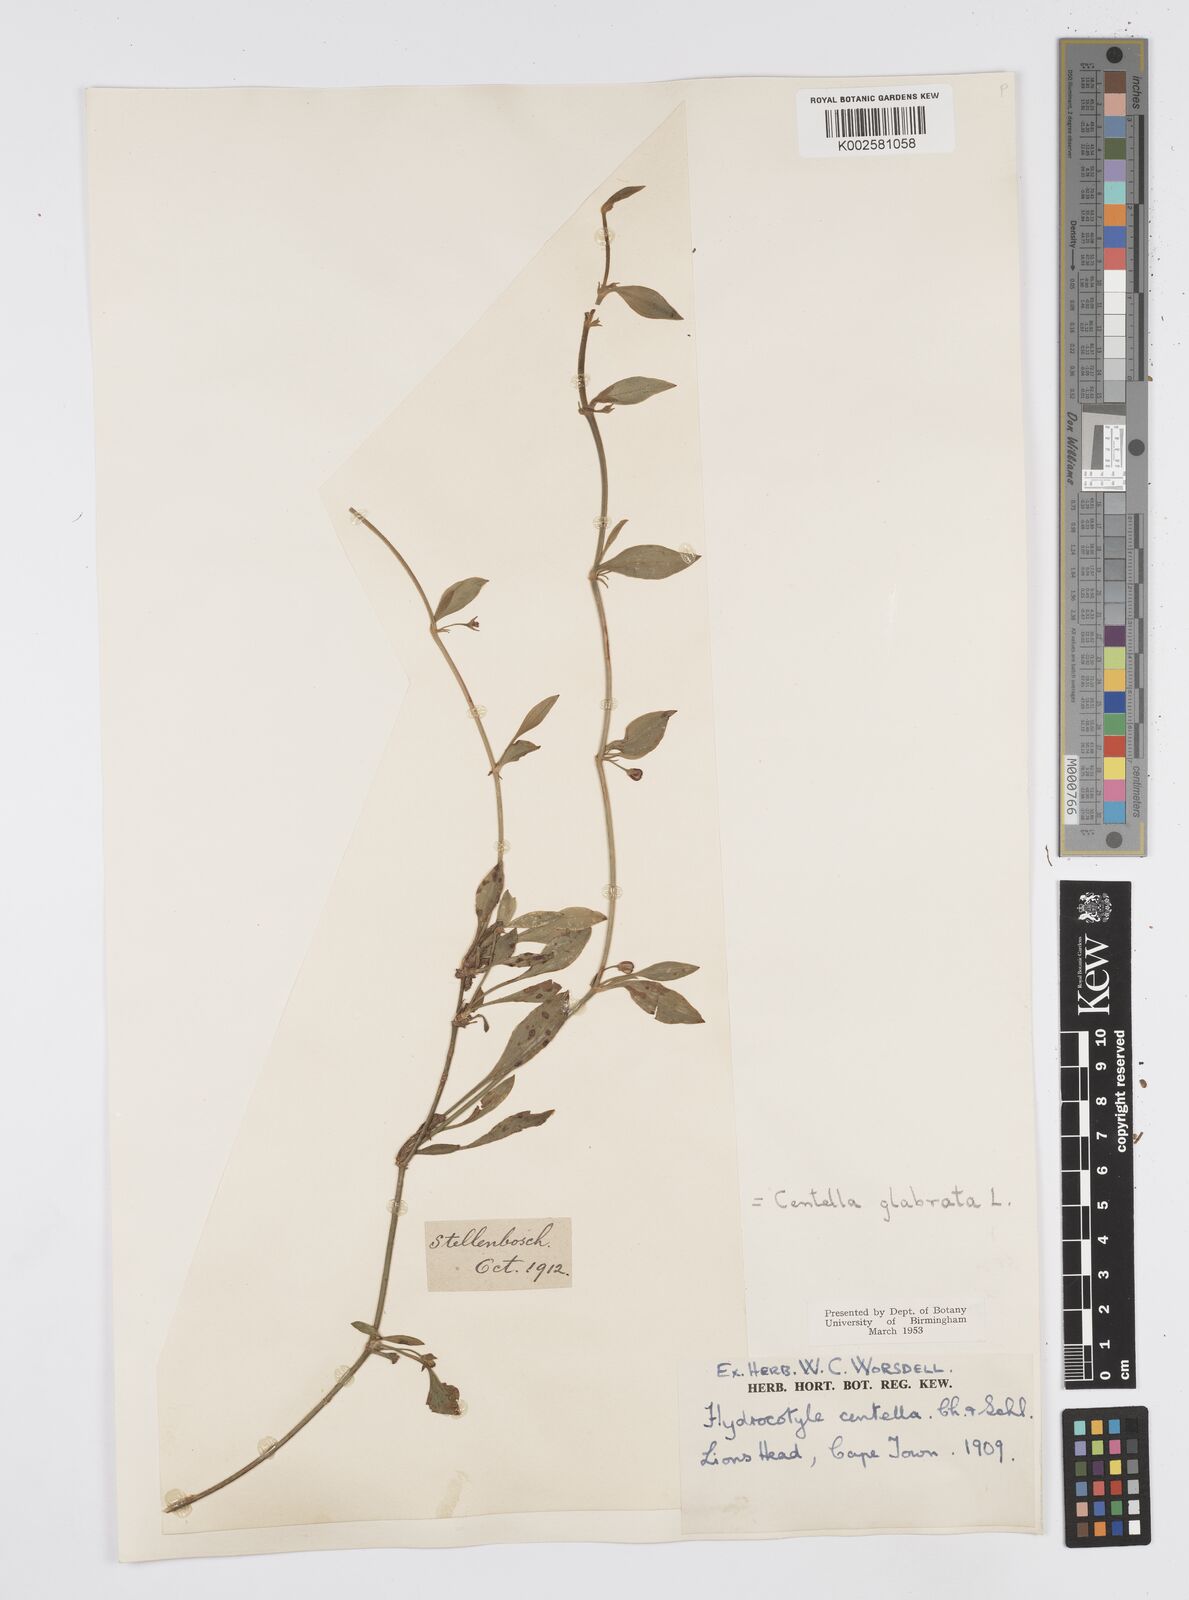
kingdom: Plantae
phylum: Tracheophyta
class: Magnoliopsida
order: Apiales
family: Apiaceae
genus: Centella
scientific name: Centella glabrata
